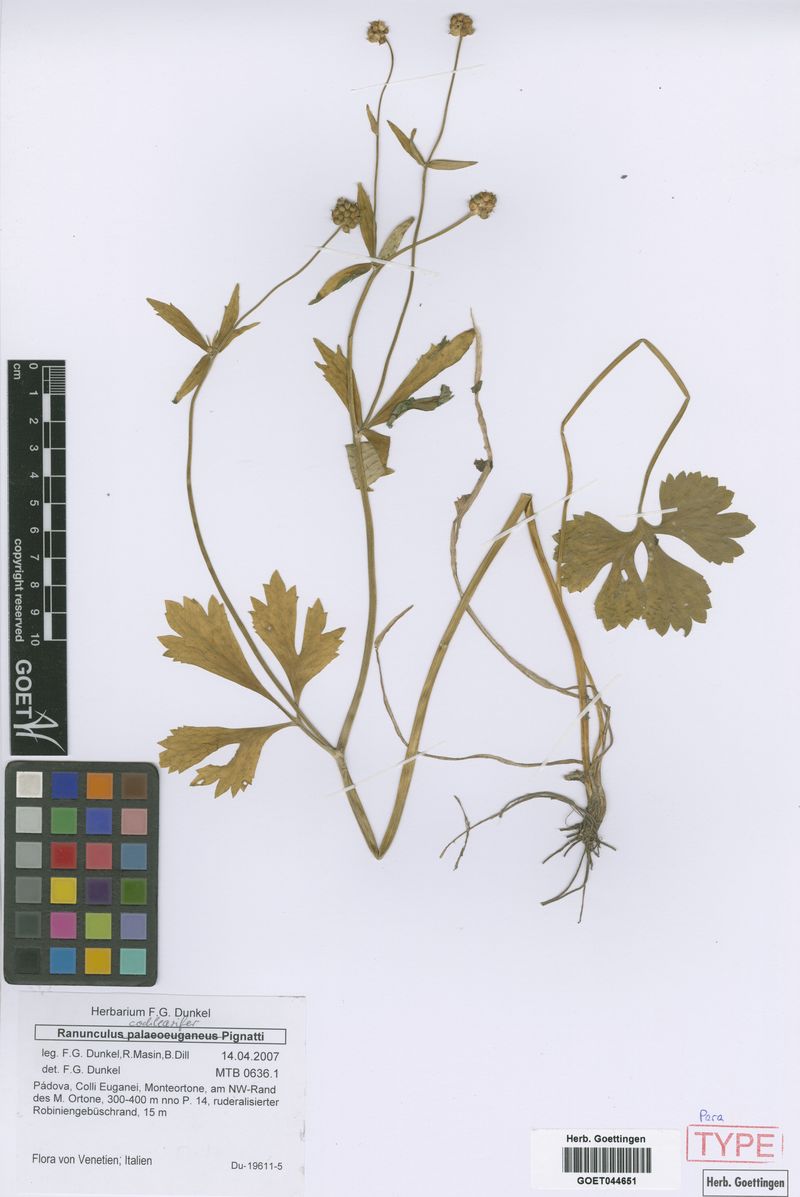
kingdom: Plantae
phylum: Tracheophyta
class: Magnoliopsida
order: Ranunculales
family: Ranunculaceae
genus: Ranunculus
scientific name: Ranunculus cochlearifer
